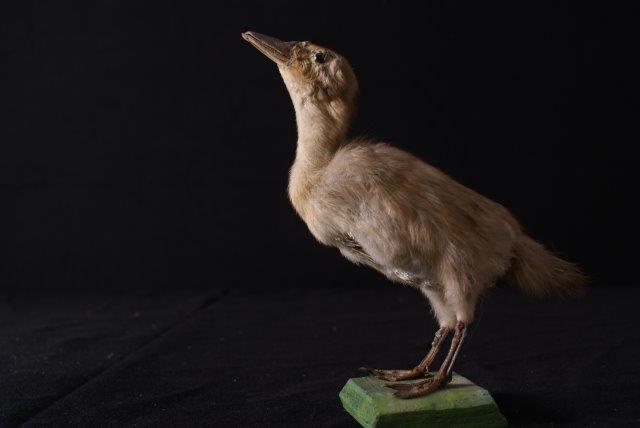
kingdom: Animalia
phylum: Chordata
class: Aves
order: Anseriformes
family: Anatidae
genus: Anas
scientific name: Anas platyrhynchos
